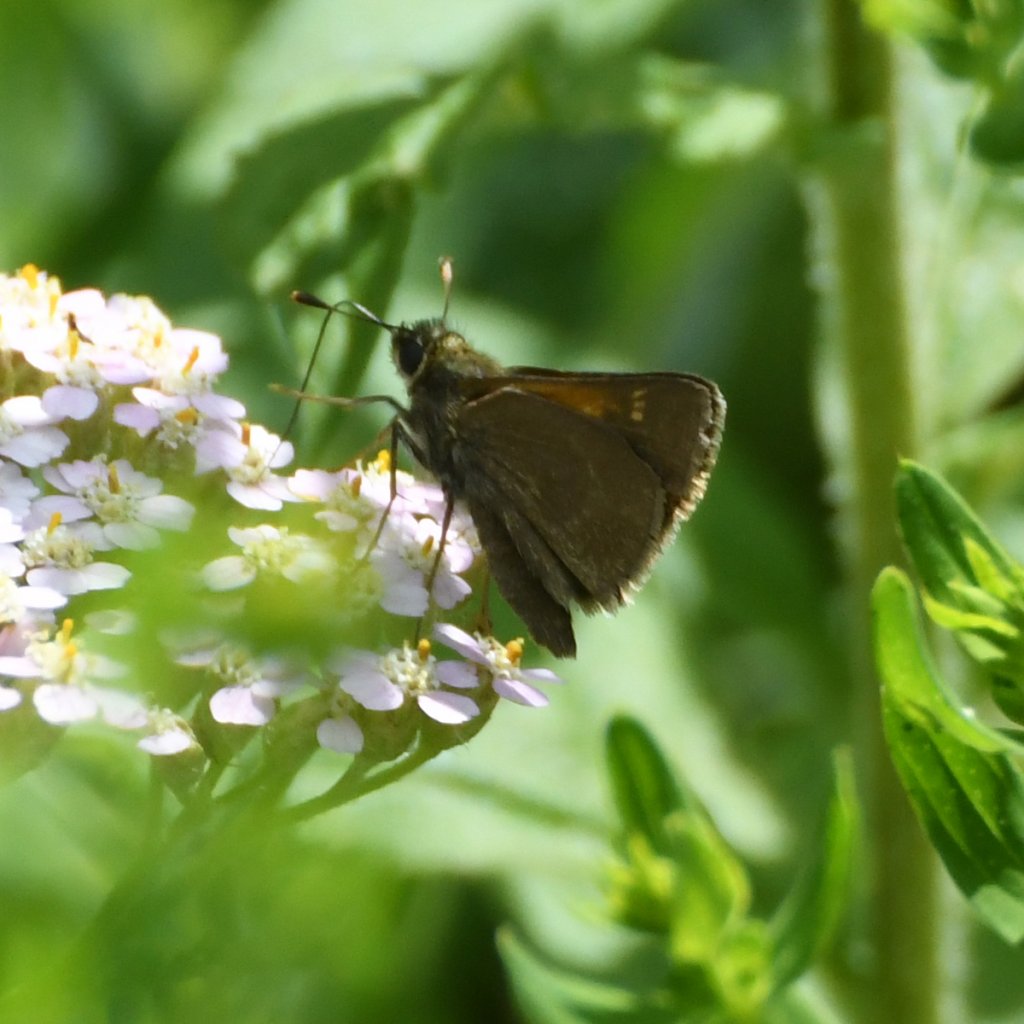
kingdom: Animalia
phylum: Arthropoda
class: Insecta
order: Lepidoptera
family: Hesperiidae
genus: Polites
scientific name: Polites themistocles
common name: Tawny-edged Skipper
